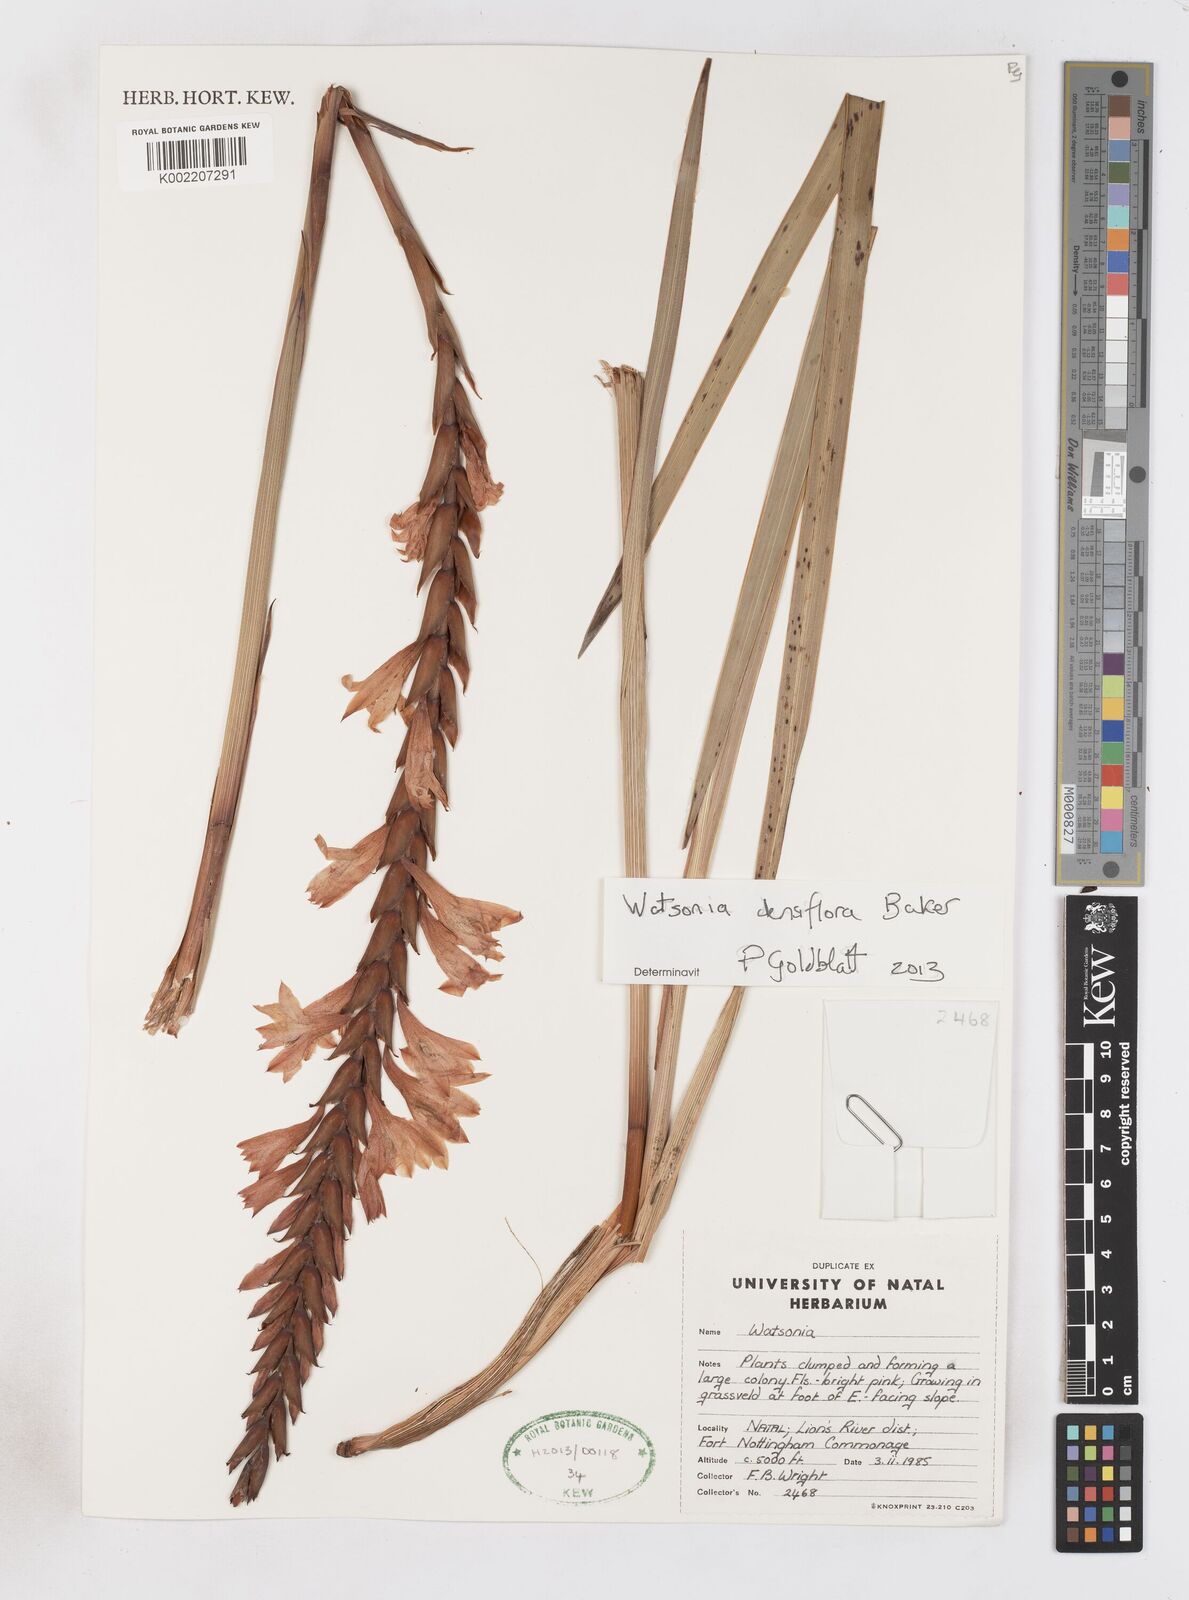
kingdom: Plantae
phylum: Tracheophyta
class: Liliopsida
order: Asparagales
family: Iridaceae
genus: Watsonia
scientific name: Watsonia densiflora
